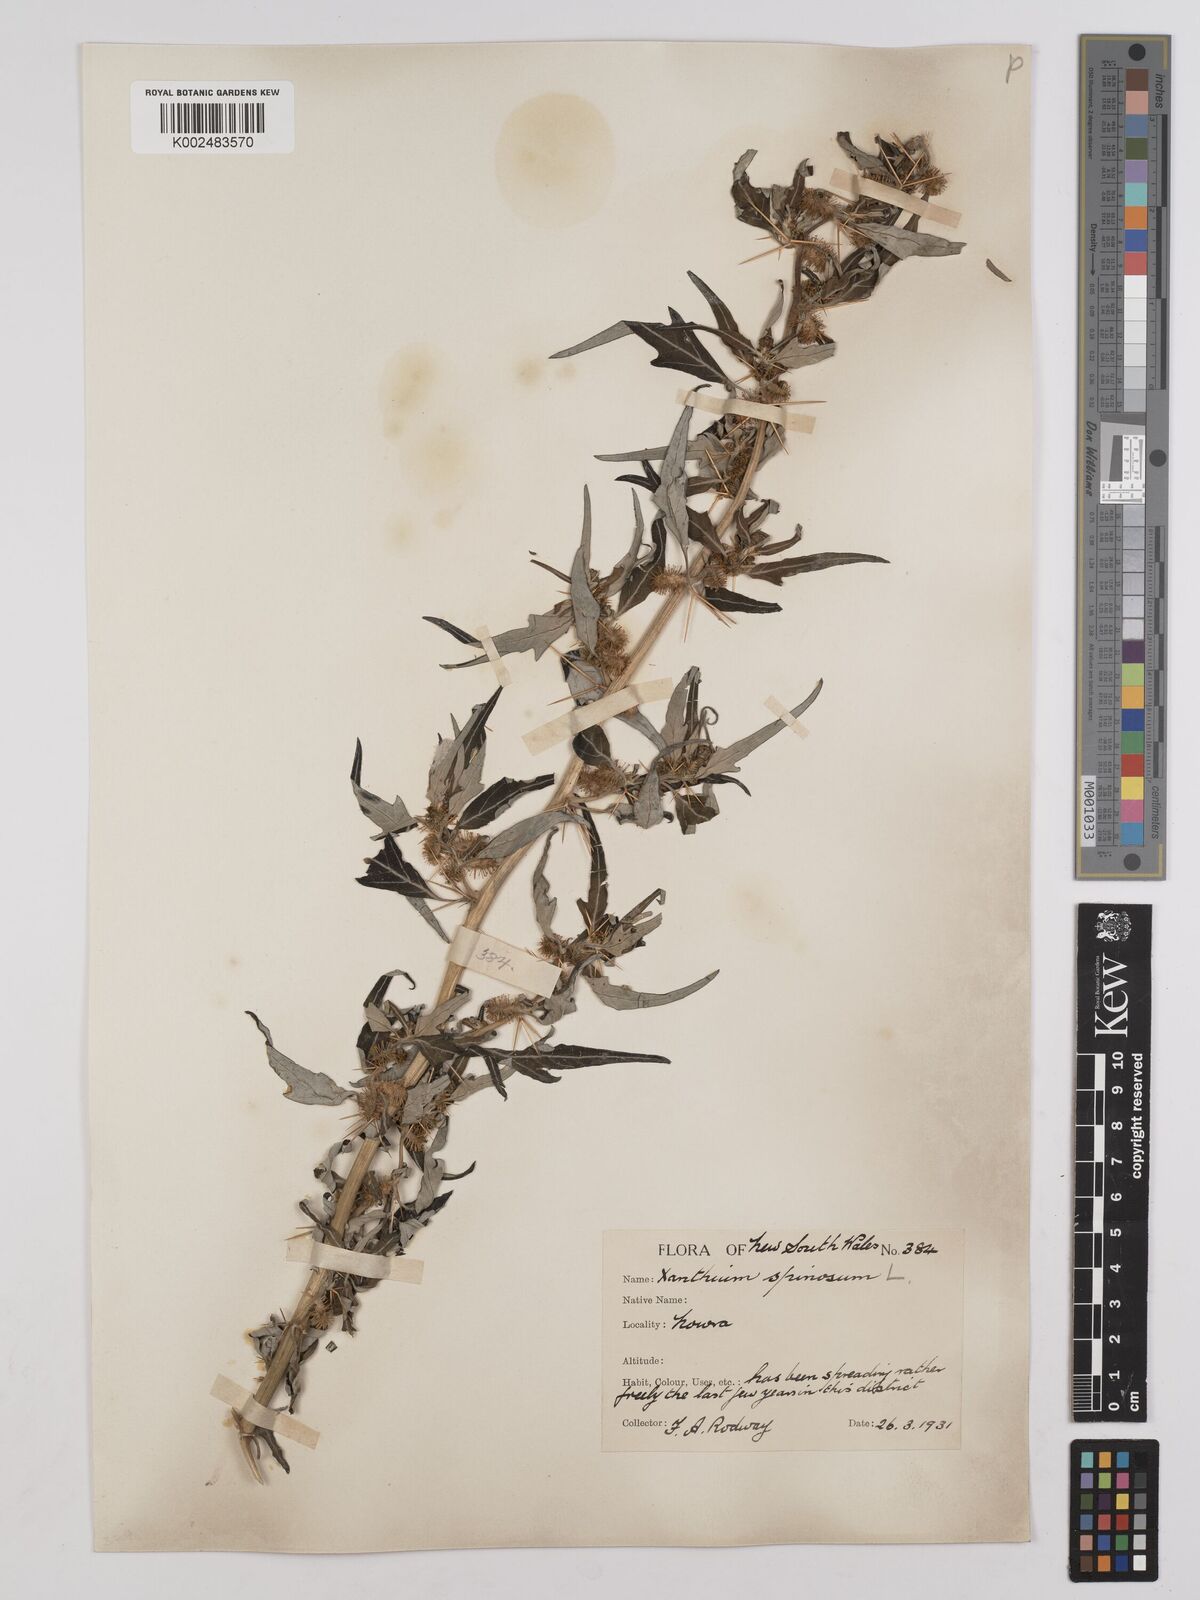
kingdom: Plantae
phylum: Tracheophyta
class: Magnoliopsida
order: Asterales
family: Asteraceae
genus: Xanthium
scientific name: Xanthium spinosum
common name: Spiny cocklebur
